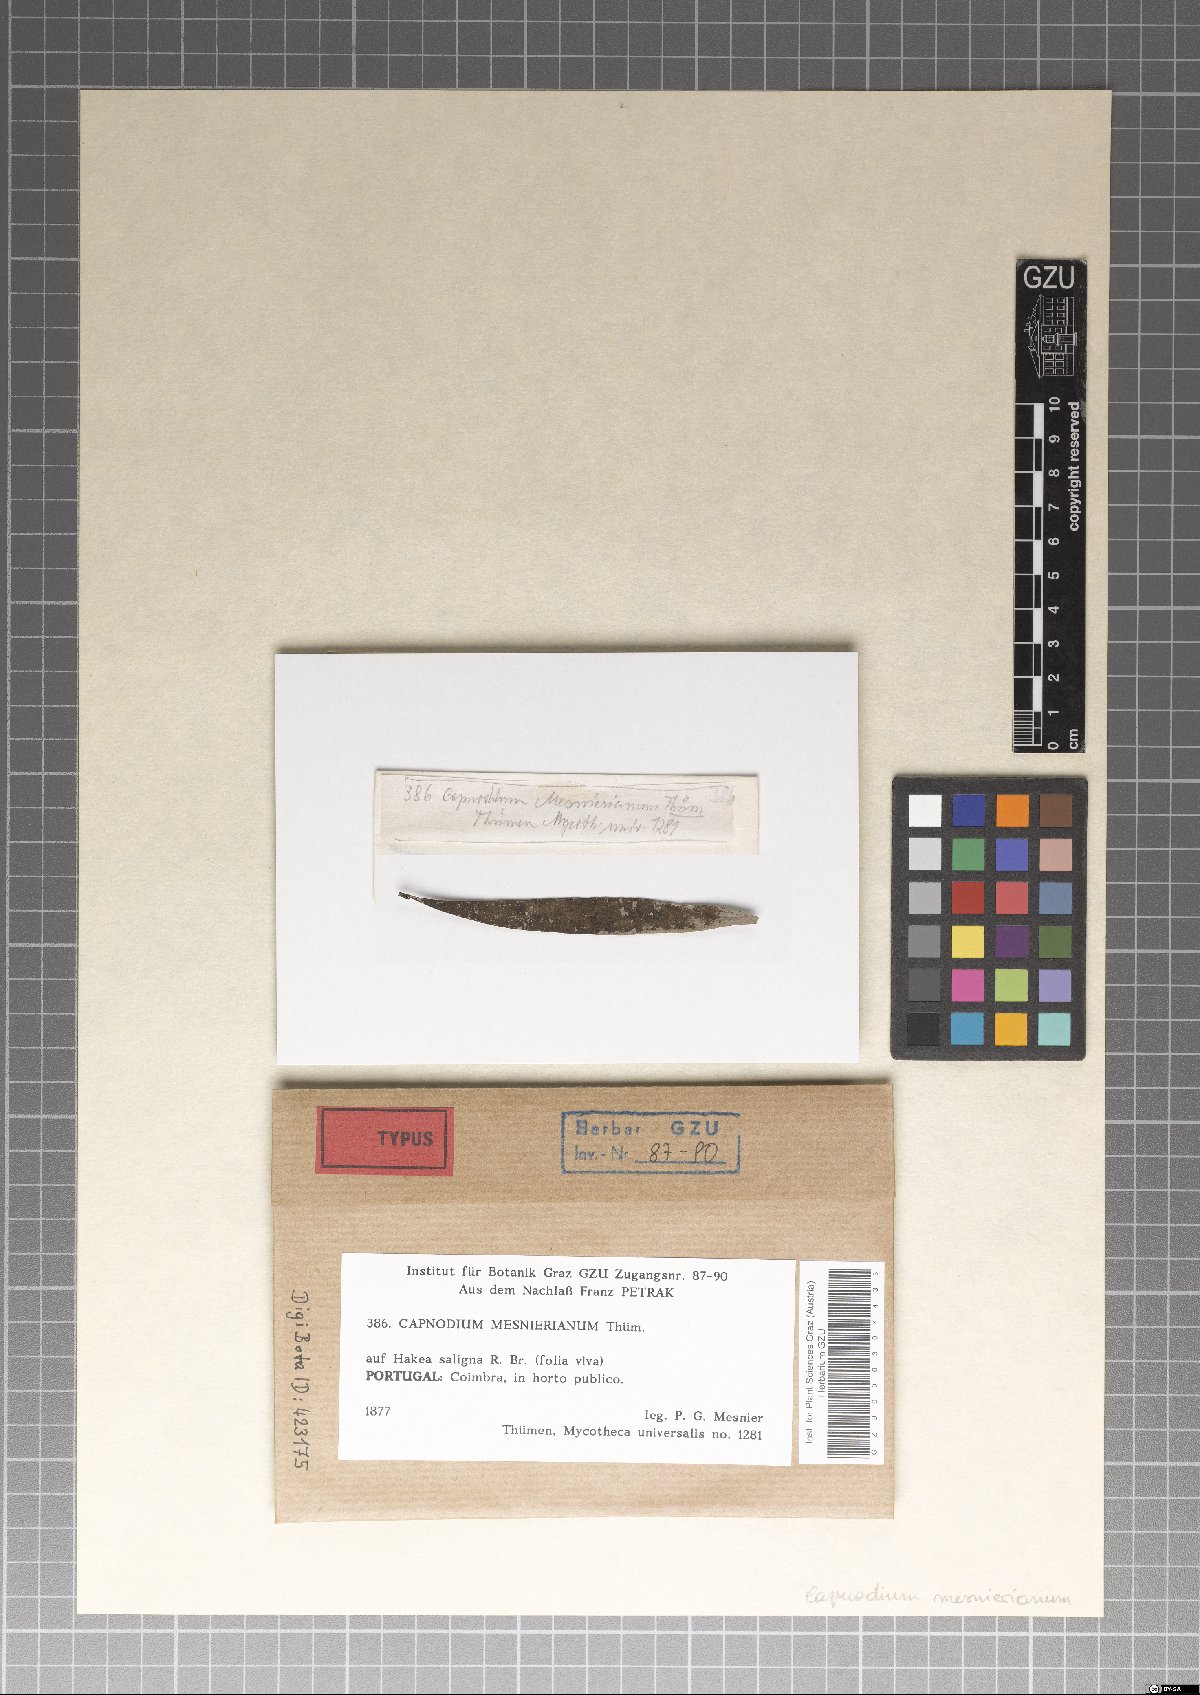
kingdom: Fungi
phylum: Ascomycota
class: Dothideomycetes
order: Capnodiales
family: Capnodiaceae
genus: Capnodium
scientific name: Capnodium
